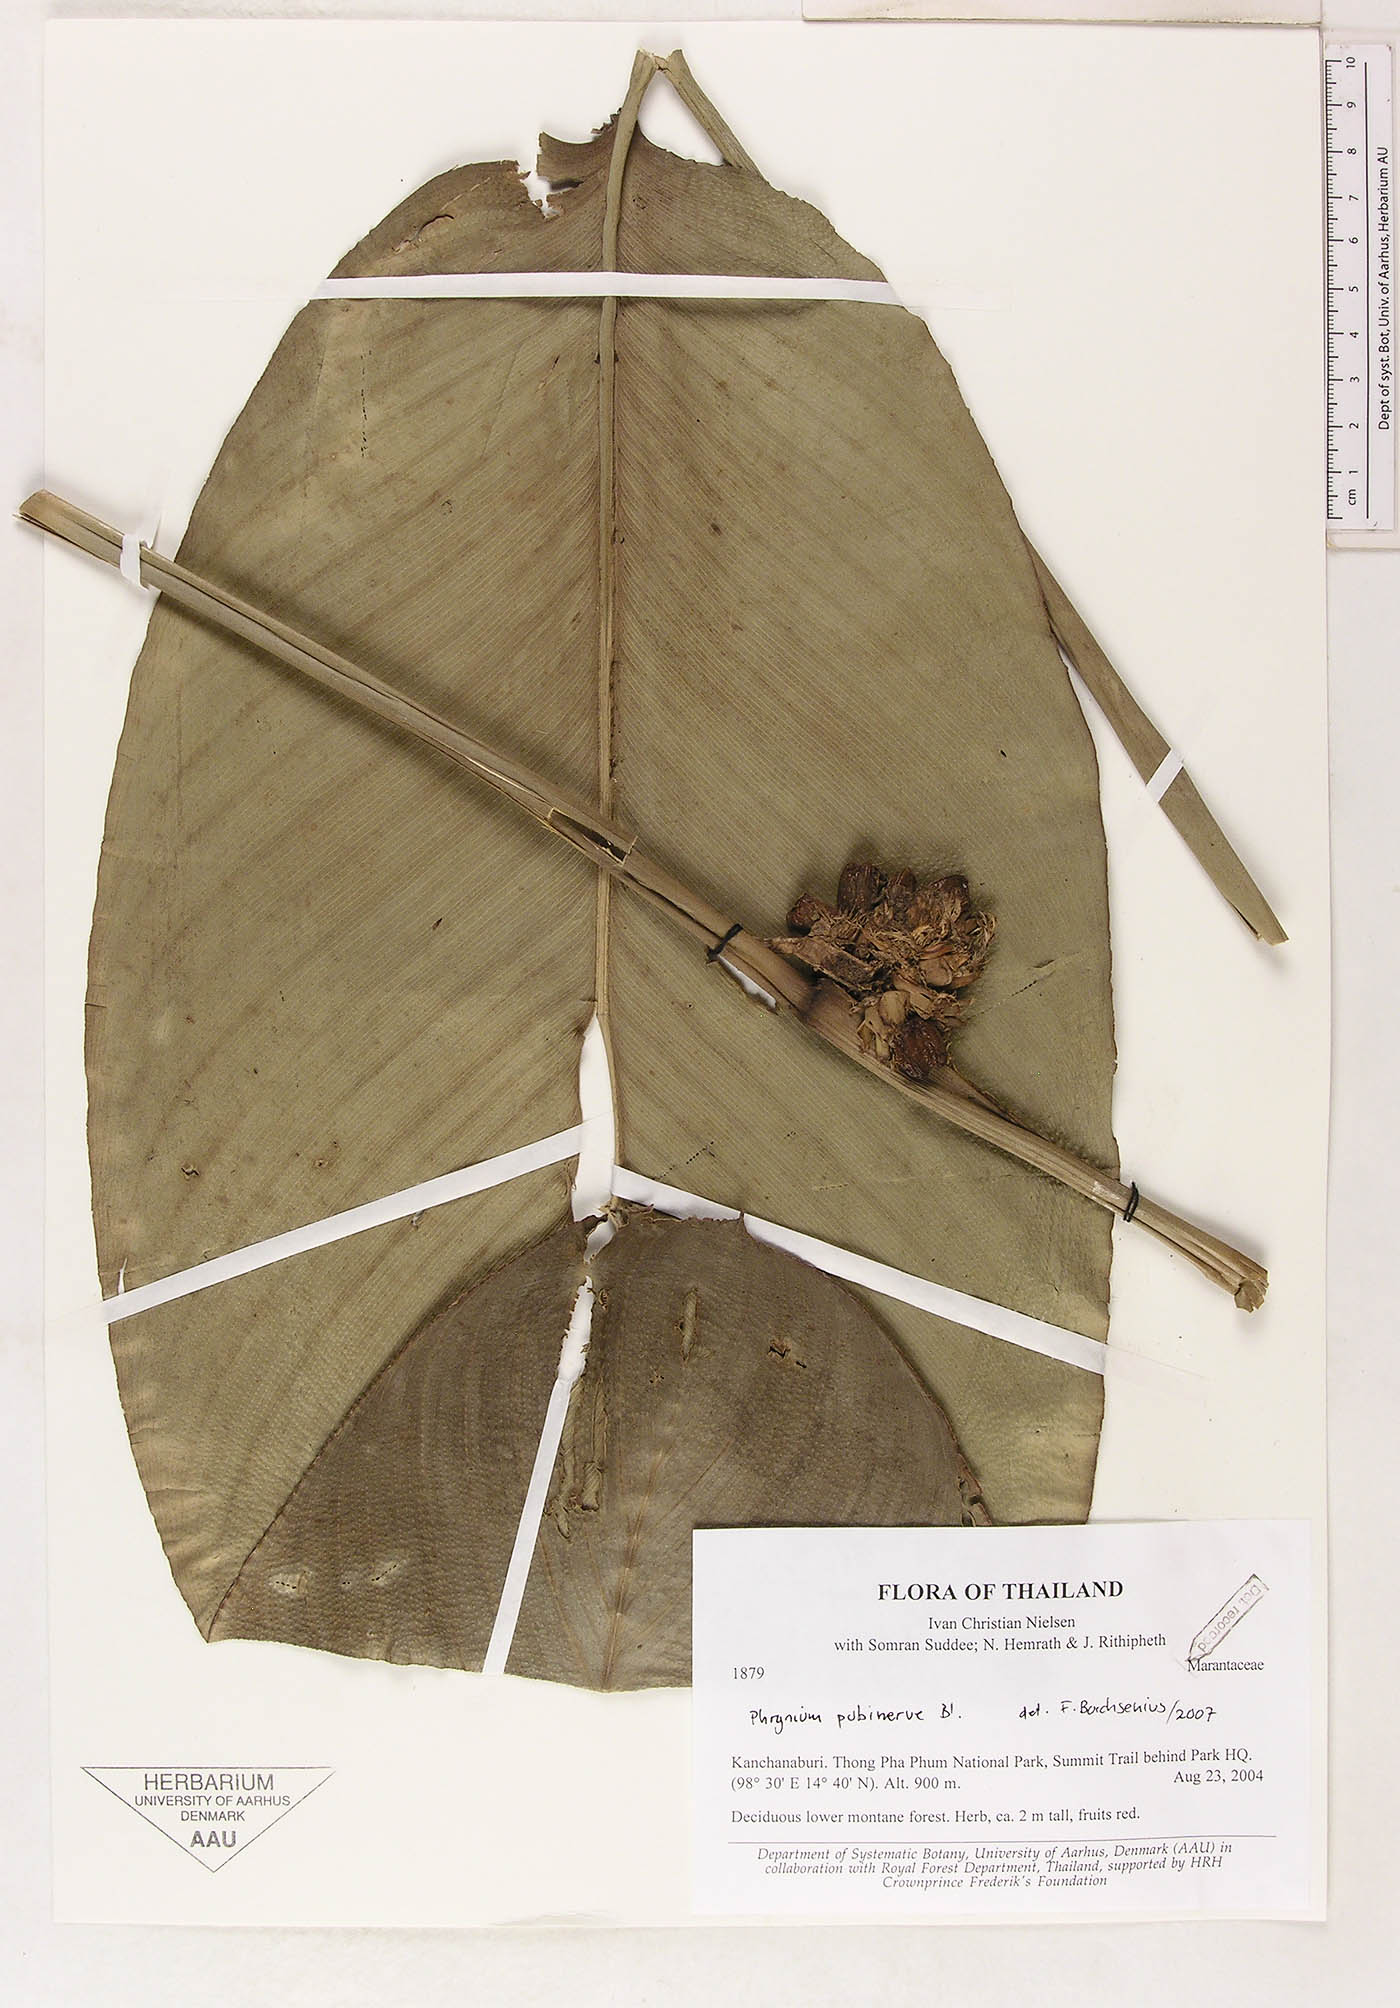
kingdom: Plantae
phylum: Tracheophyta
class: Liliopsida
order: Zingiberales
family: Marantaceae
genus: Phrynium
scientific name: Phrynium pubinerve
